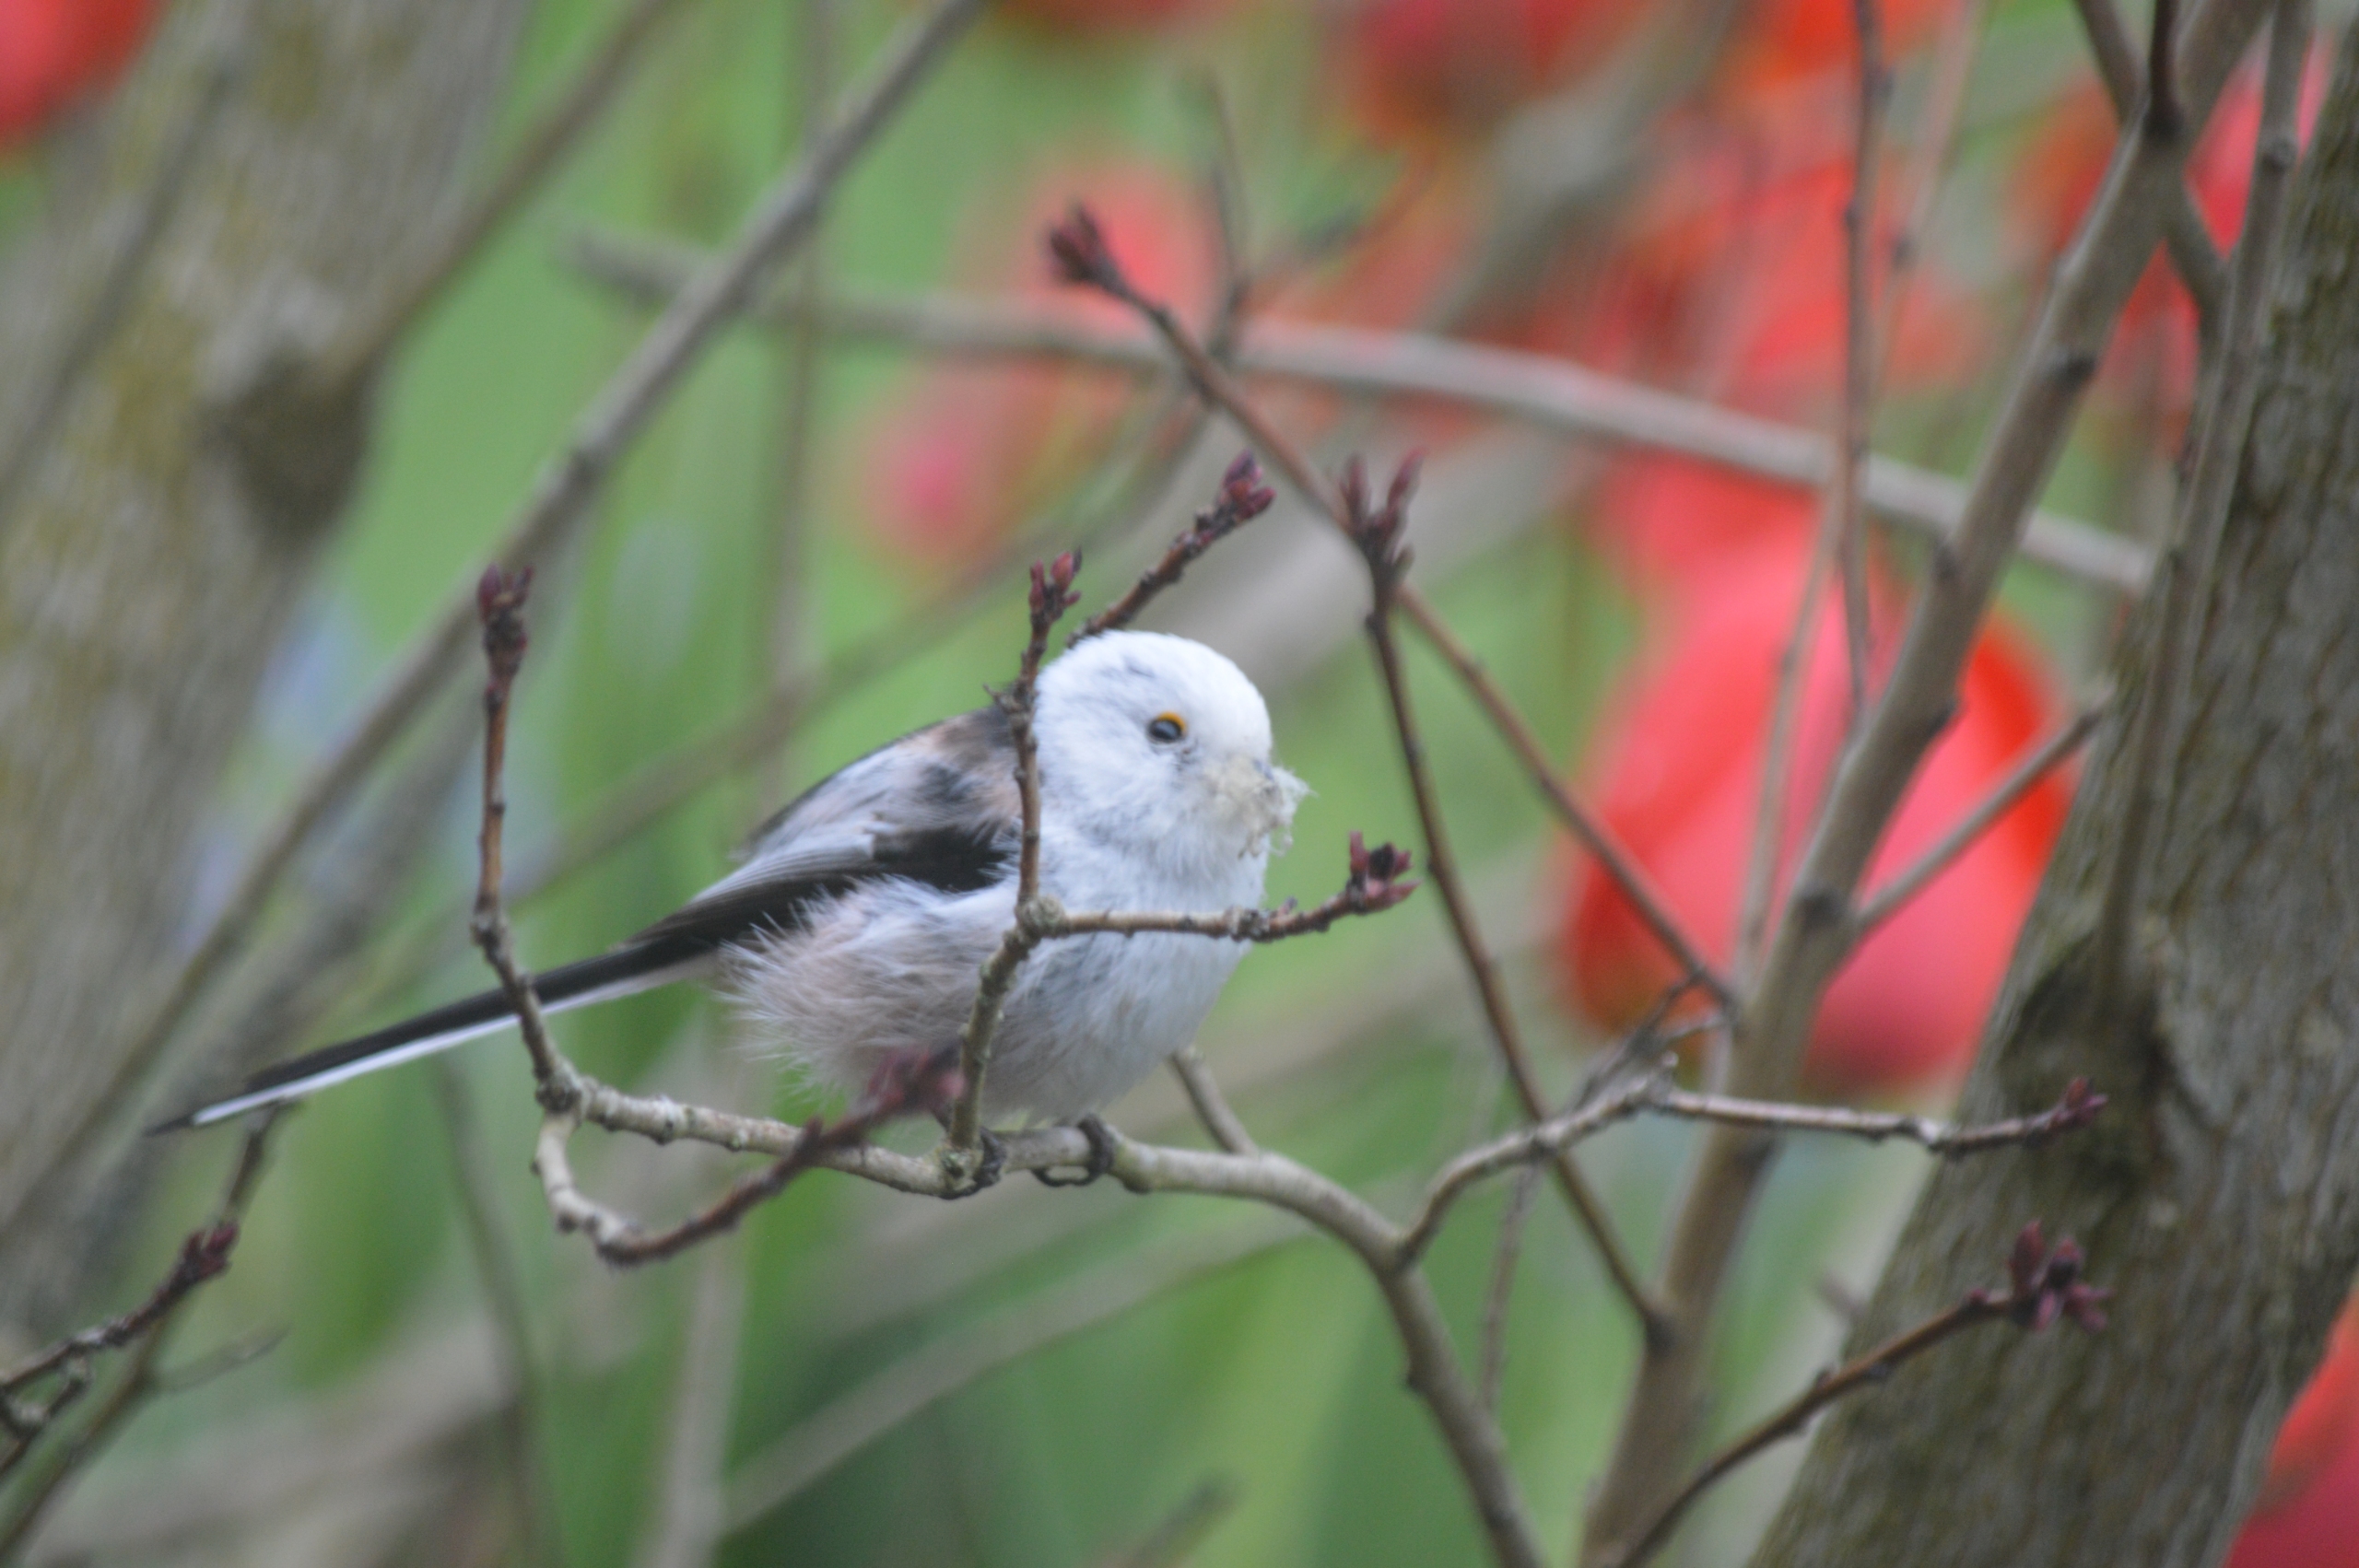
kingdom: Animalia
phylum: Chordata
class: Aves
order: Passeriformes
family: Aegithalidae
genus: Aegithalos
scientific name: Aegithalos caudatus
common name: Halemejse
